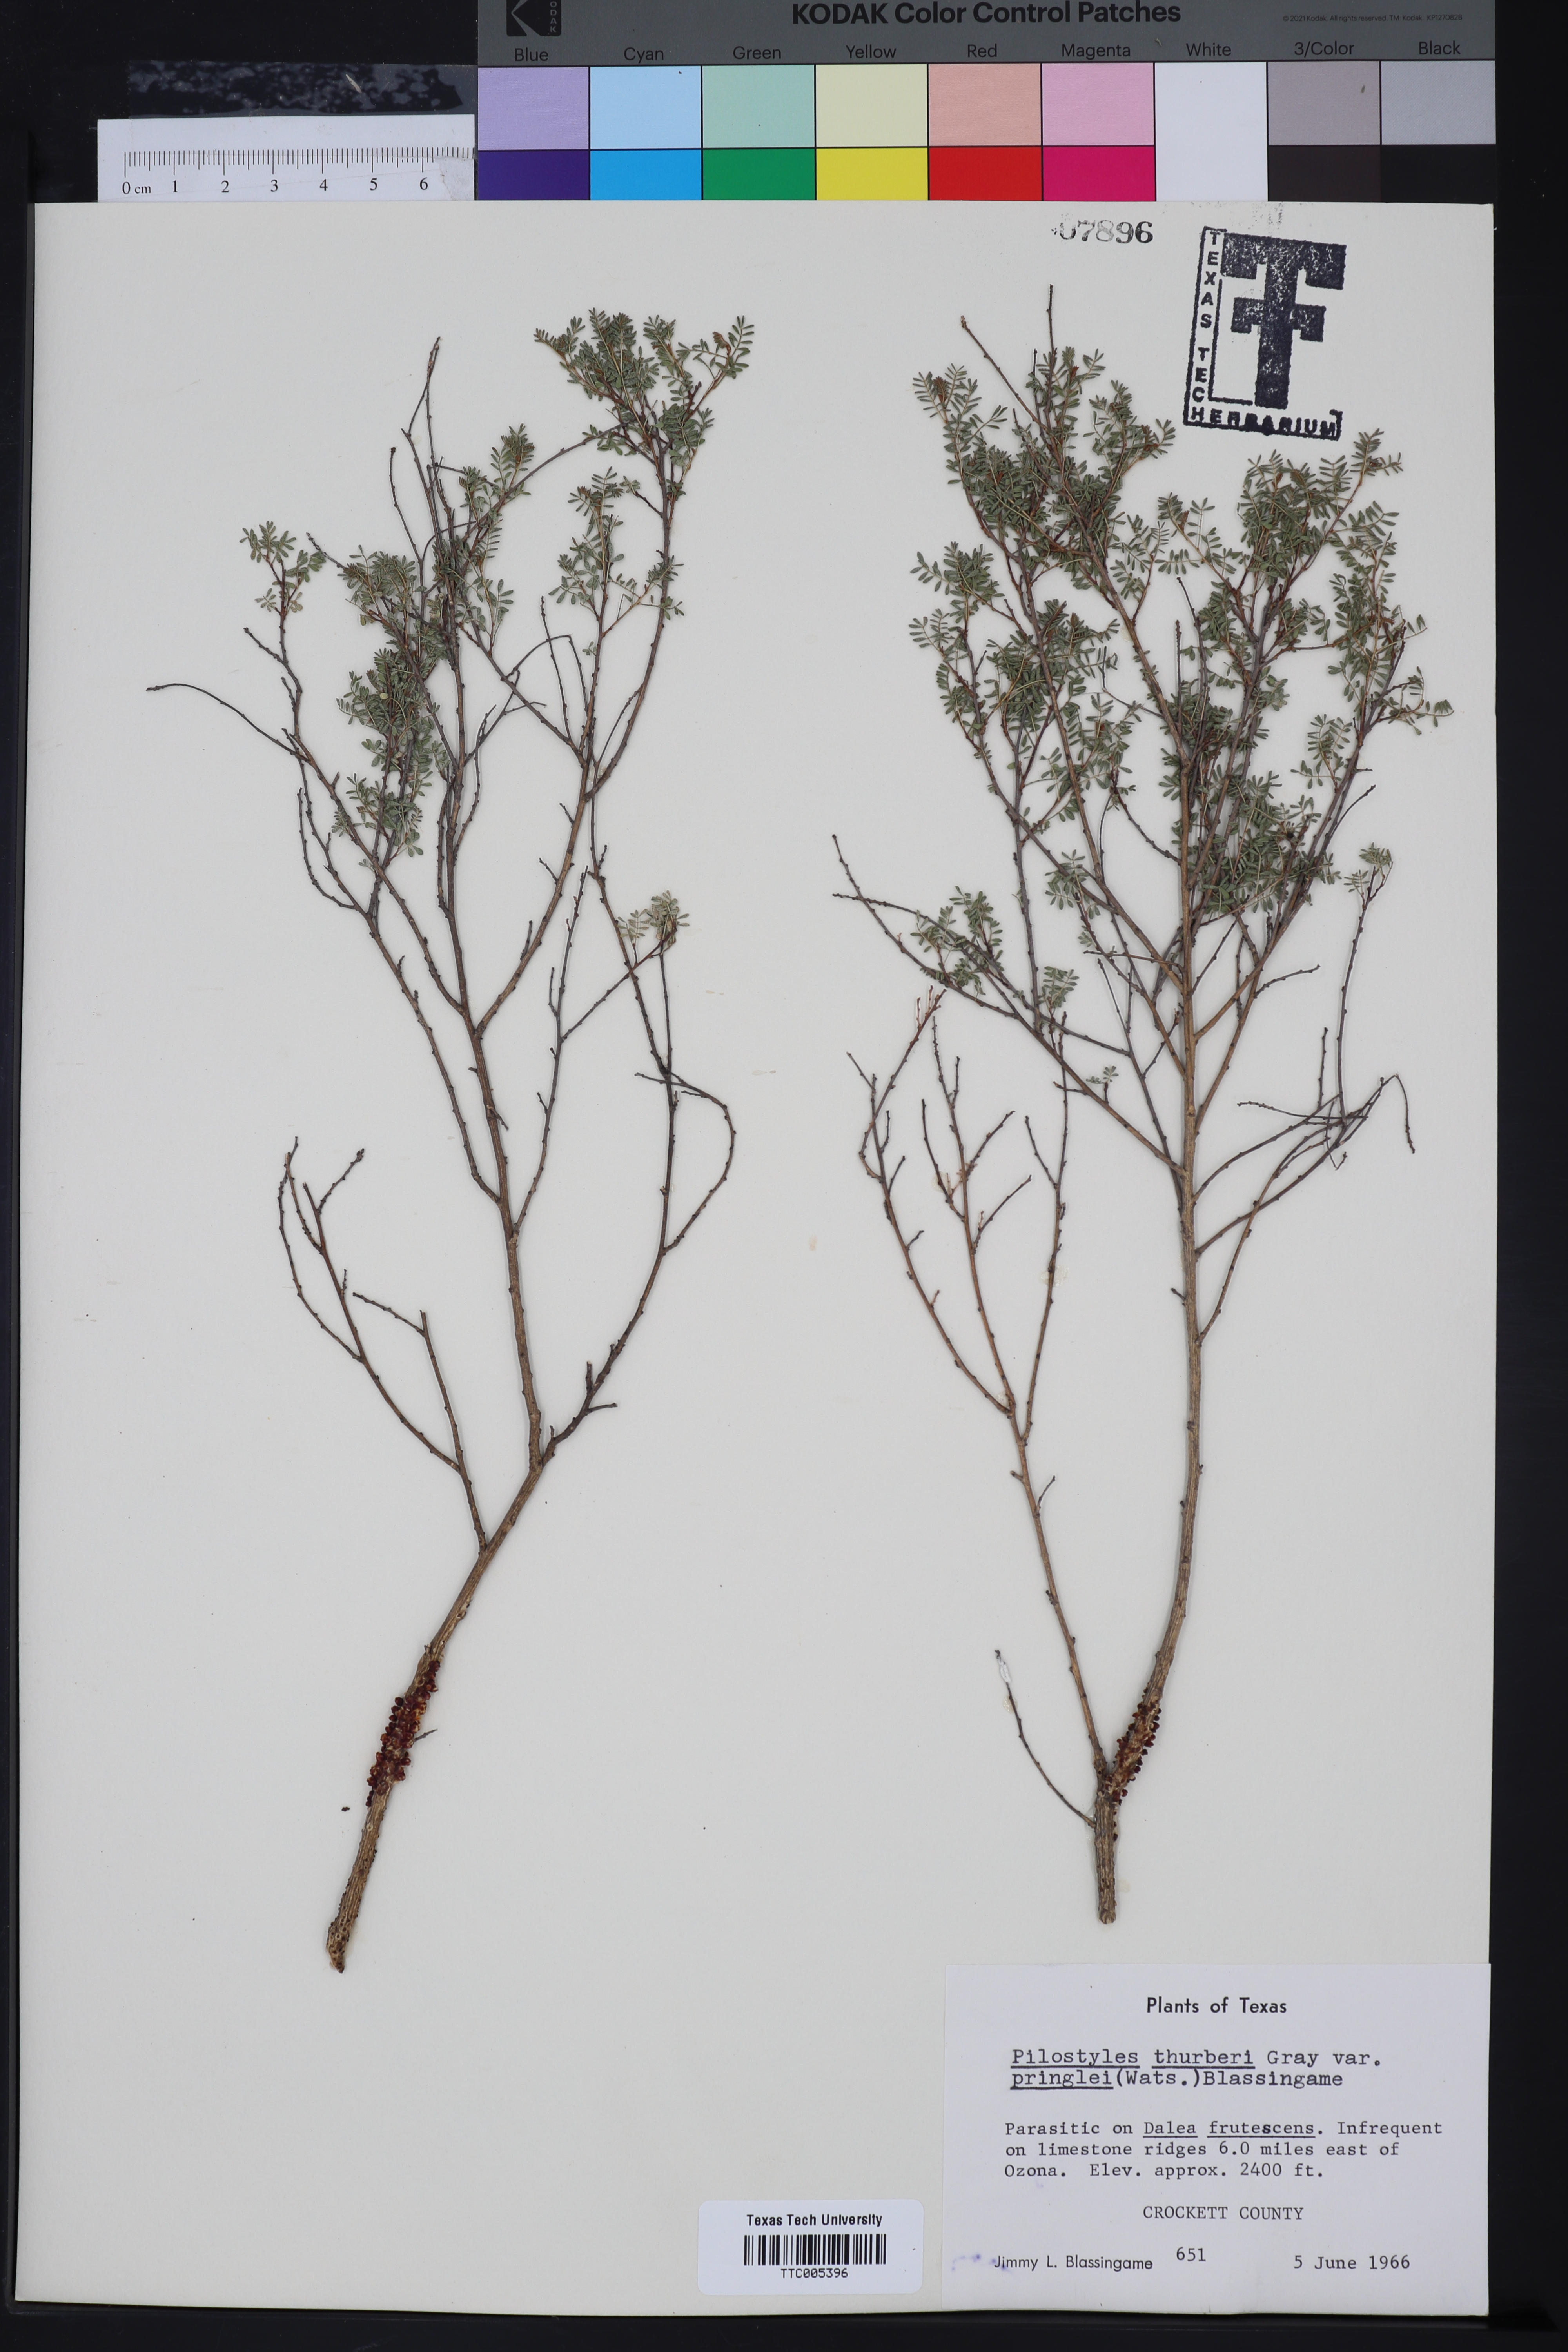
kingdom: Plantae
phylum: Tracheophyta
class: Magnoliopsida
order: Cucurbitales
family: Apodanthaceae
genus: Pilostyles
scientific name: Pilostyles thurberi
